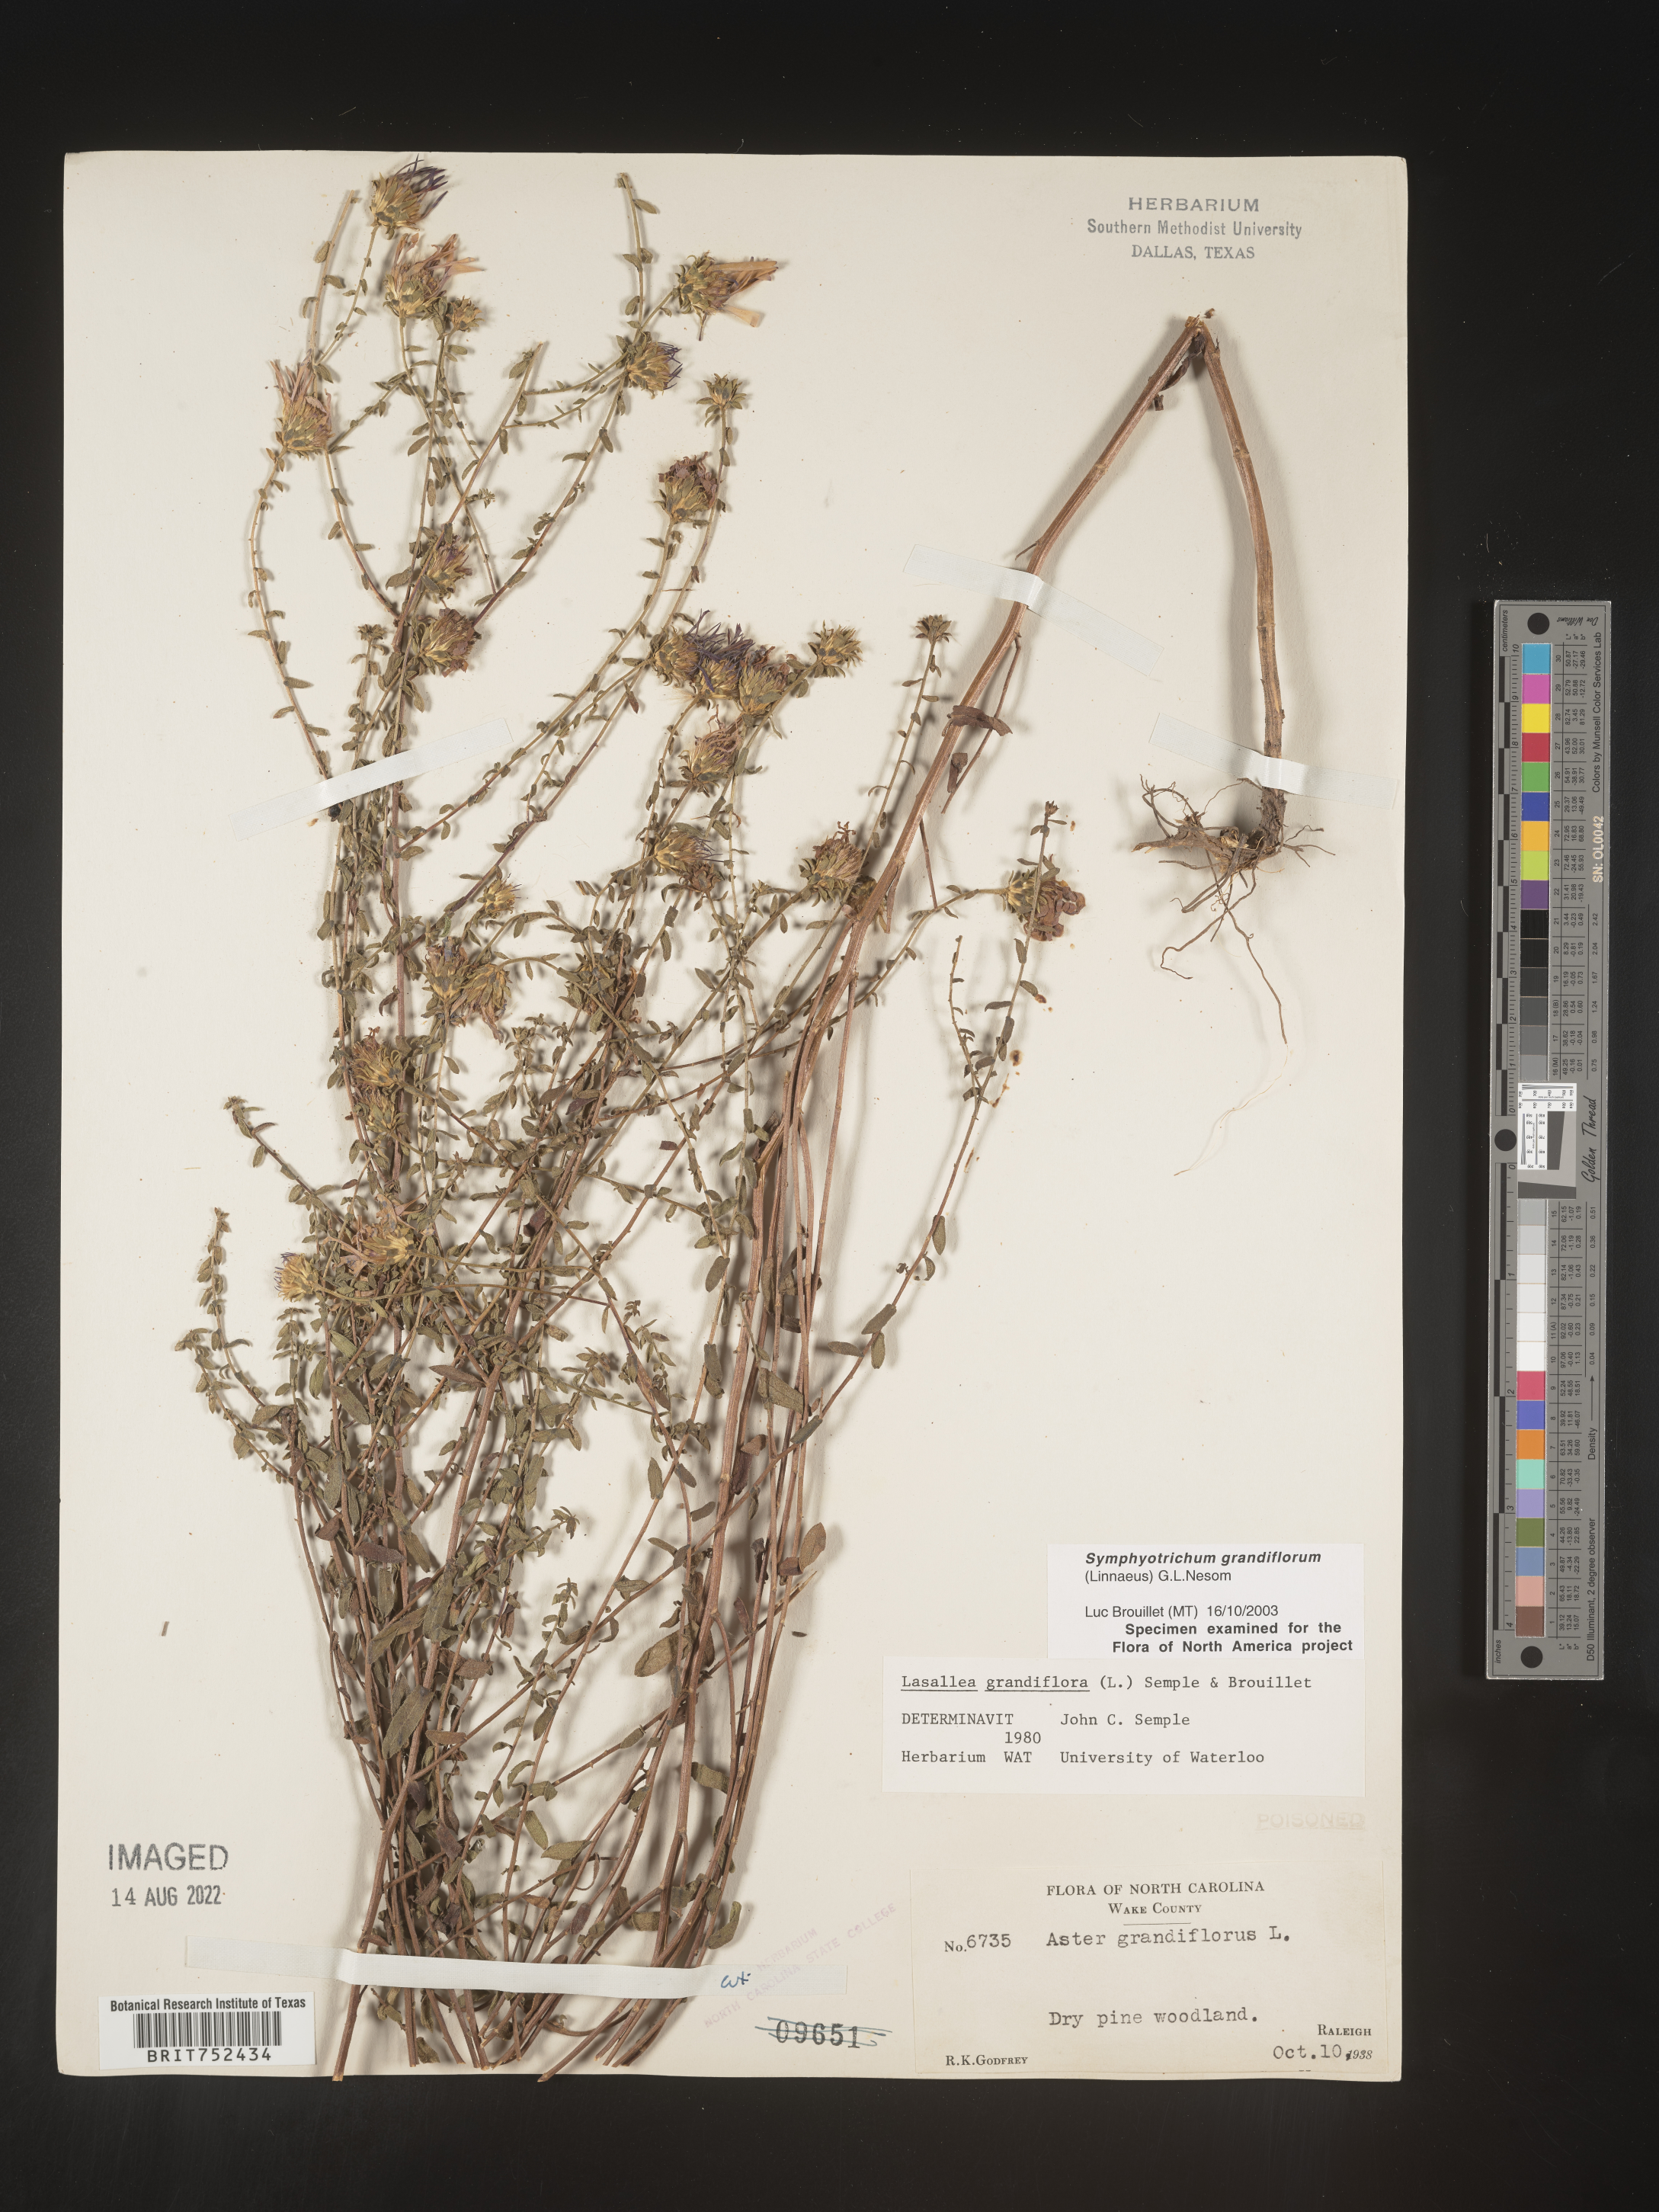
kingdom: Plantae
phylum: Tracheophyta
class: Magnoliopsida
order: Asterales
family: Asteraceae
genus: Symphyotrichum
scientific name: Symphyotrichum grandiflorum
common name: Big-head aster
